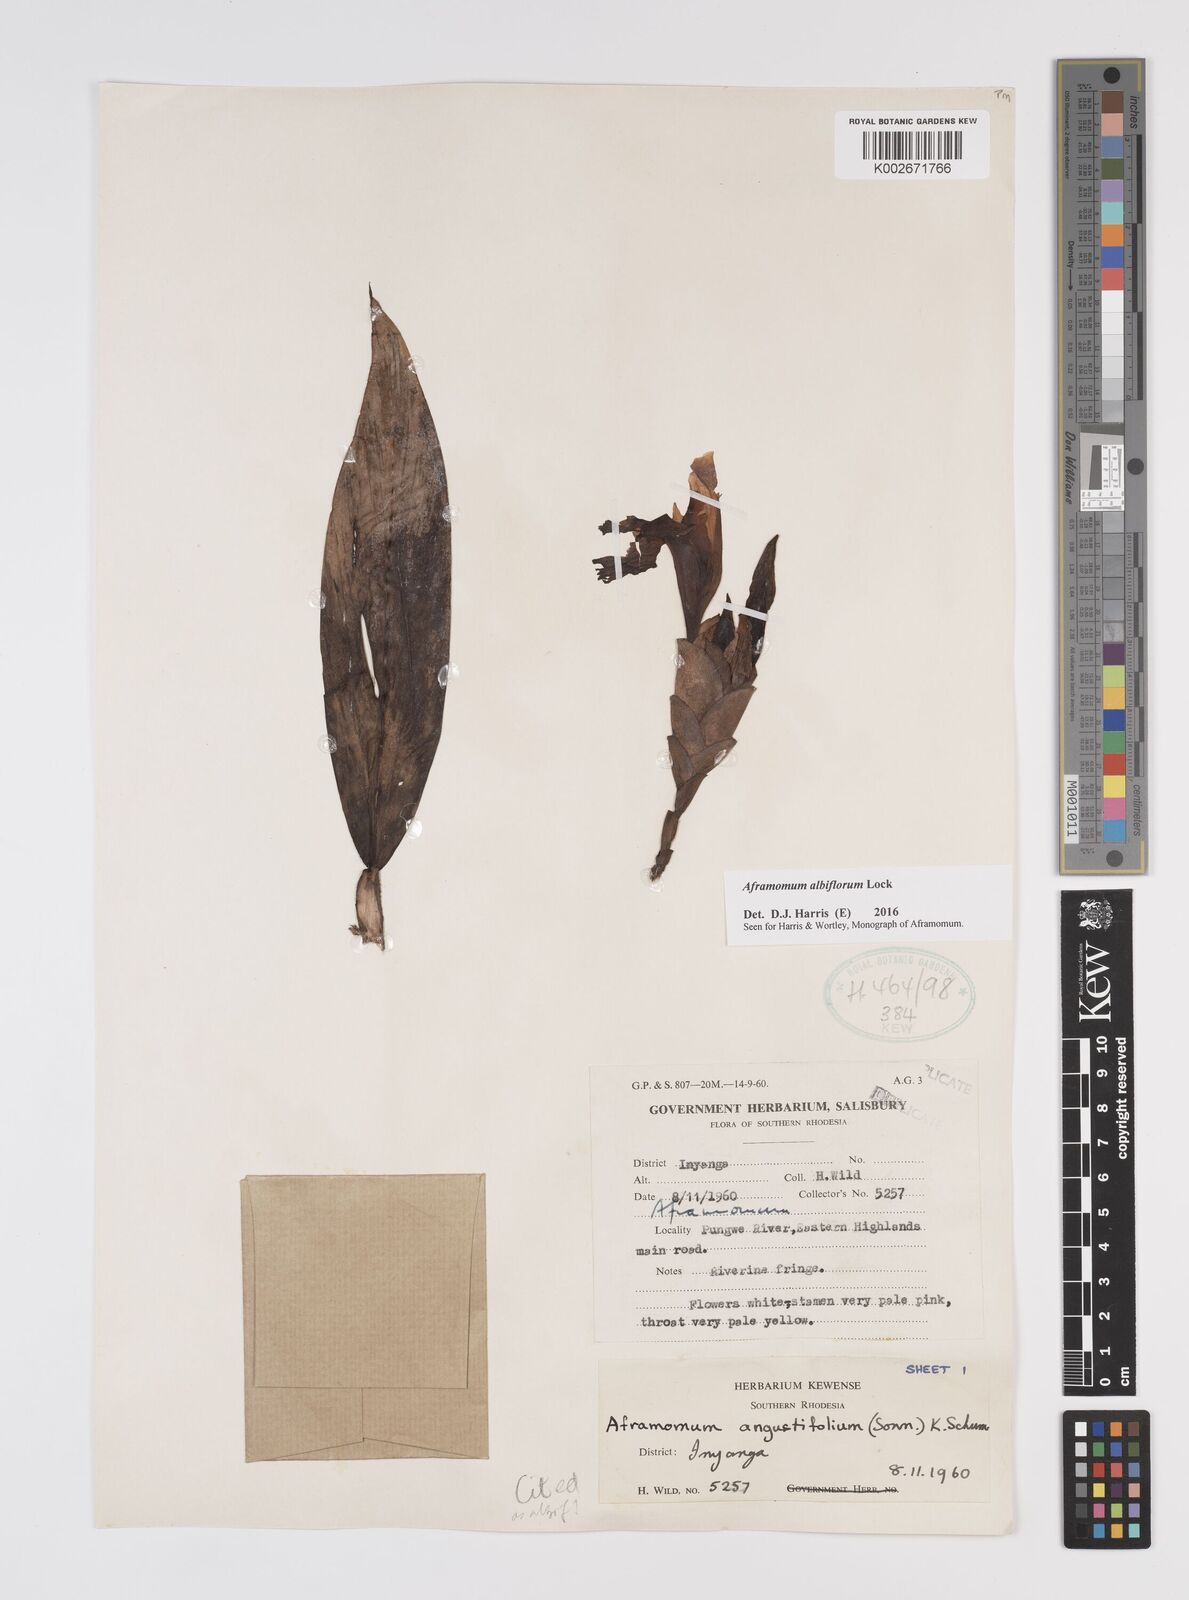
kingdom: Plantae
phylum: Tracheophyta
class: Liliopsida
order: Zingiberales
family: Zingiberaceae
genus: Aframomum
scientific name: Aframomum albiflorum
